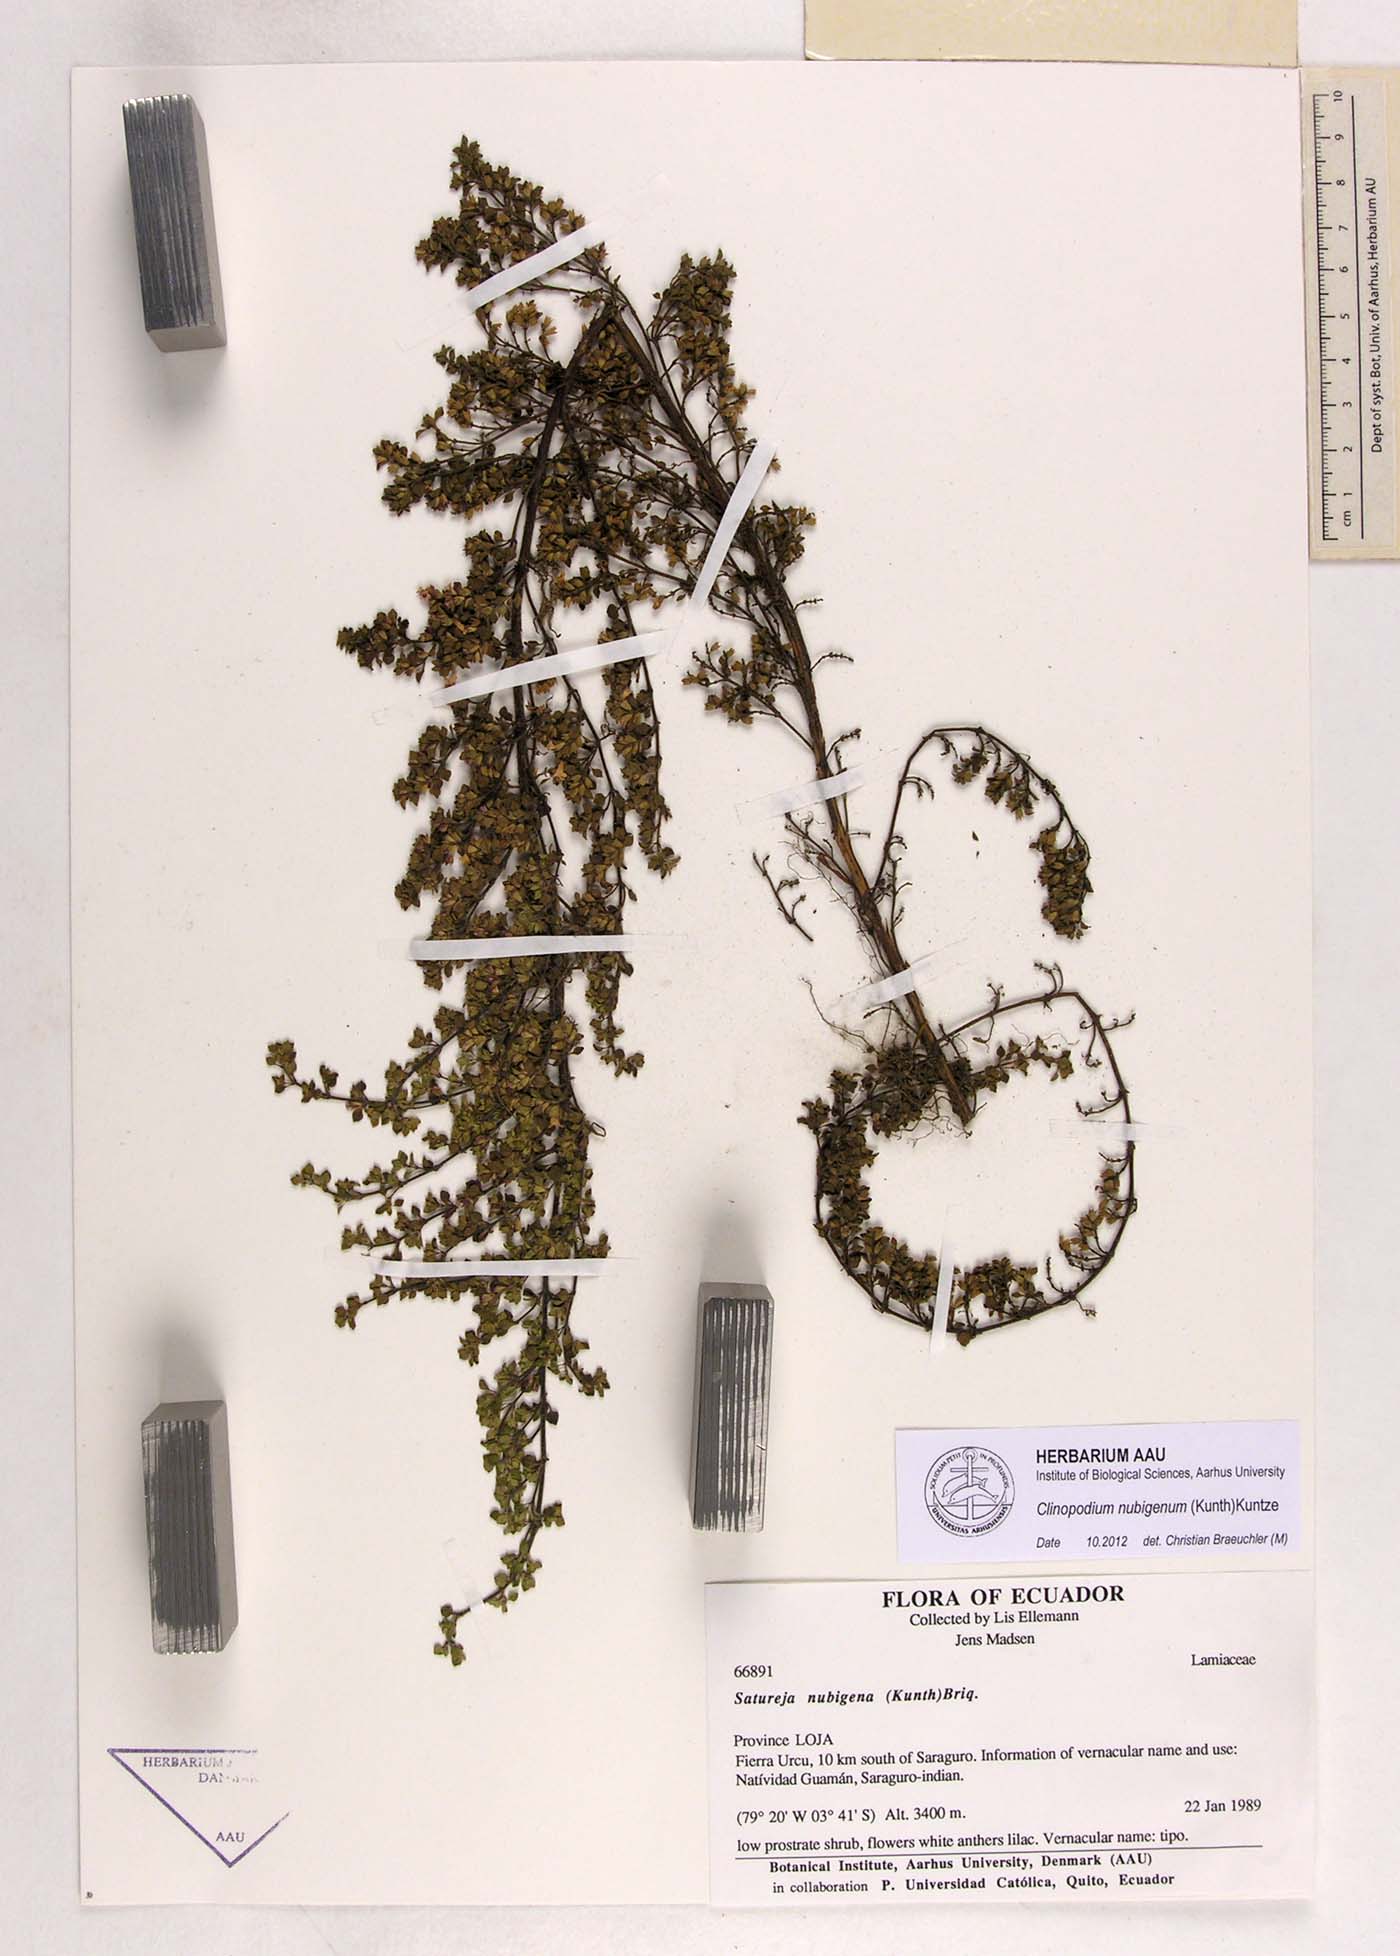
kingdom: Plantae
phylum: Tracheophyta
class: Magnoliopsida
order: Lamiales
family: Lamiaceae
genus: Clinopodium
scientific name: Clinopodium nubigenum
